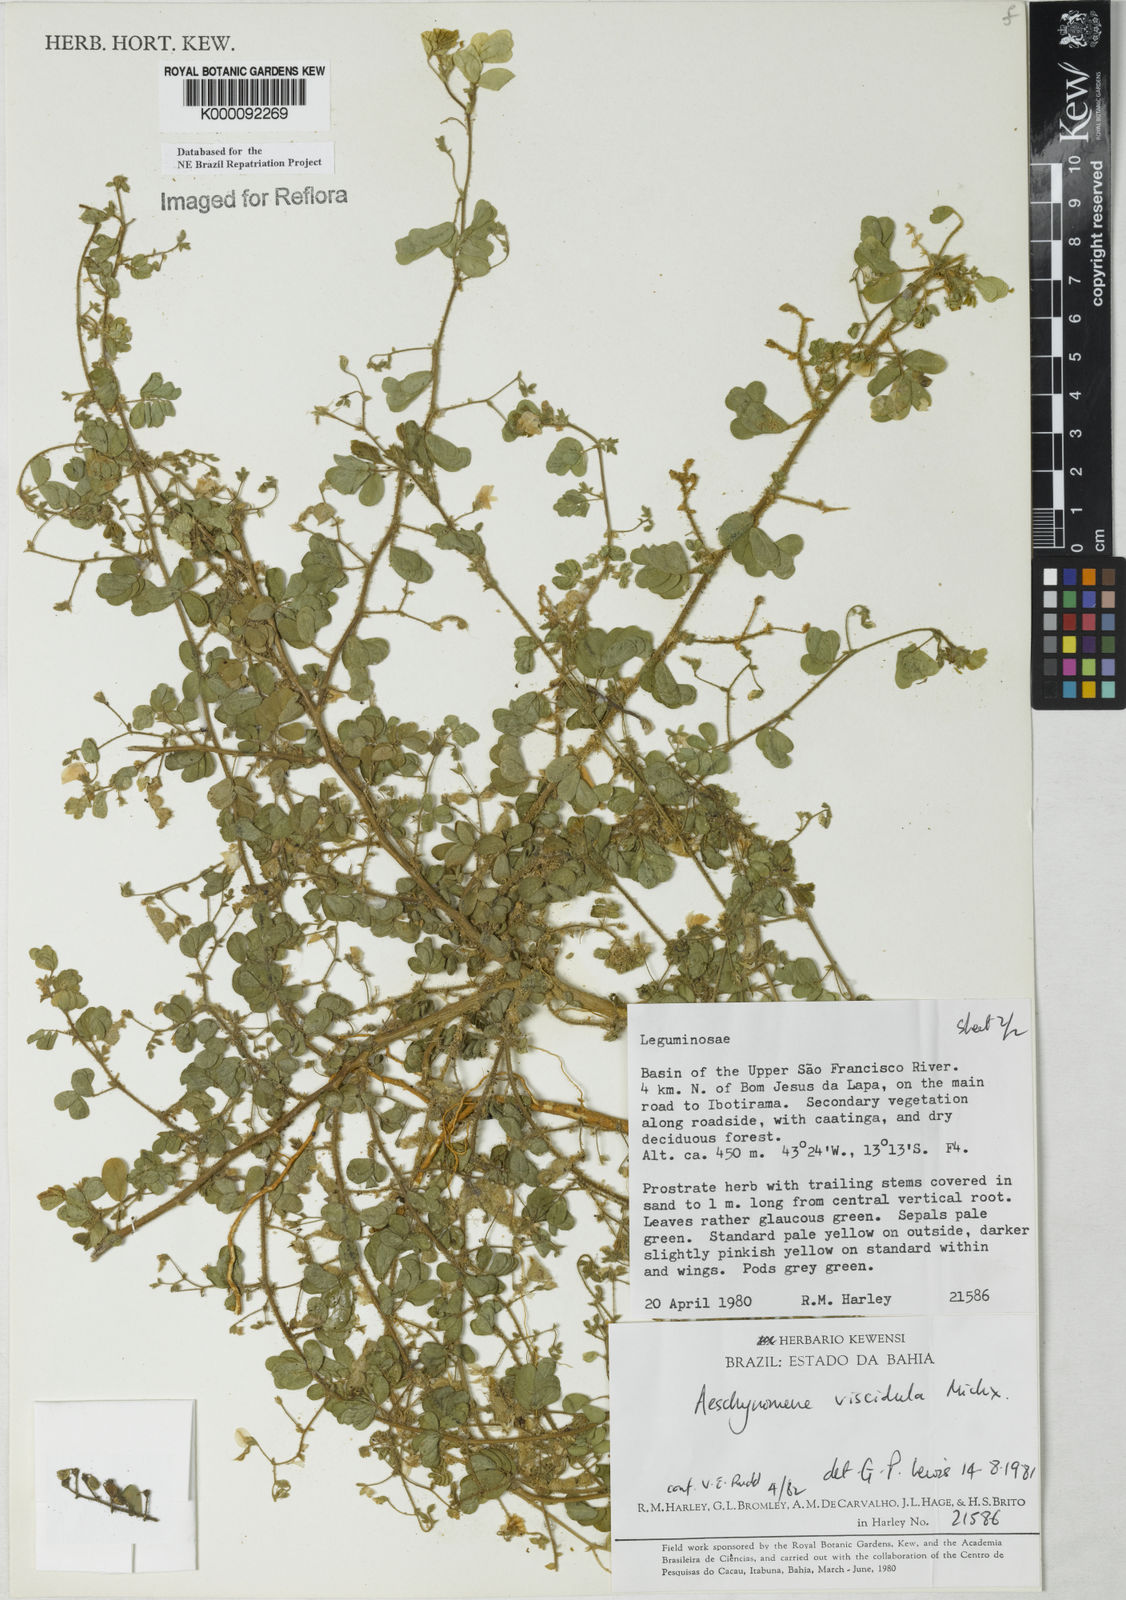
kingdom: Plantae
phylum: Tracheophyta
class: Magnoliopsida
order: Fabales
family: Fabaceae
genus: Ctenodon
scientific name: Ctenodon viscidulus
